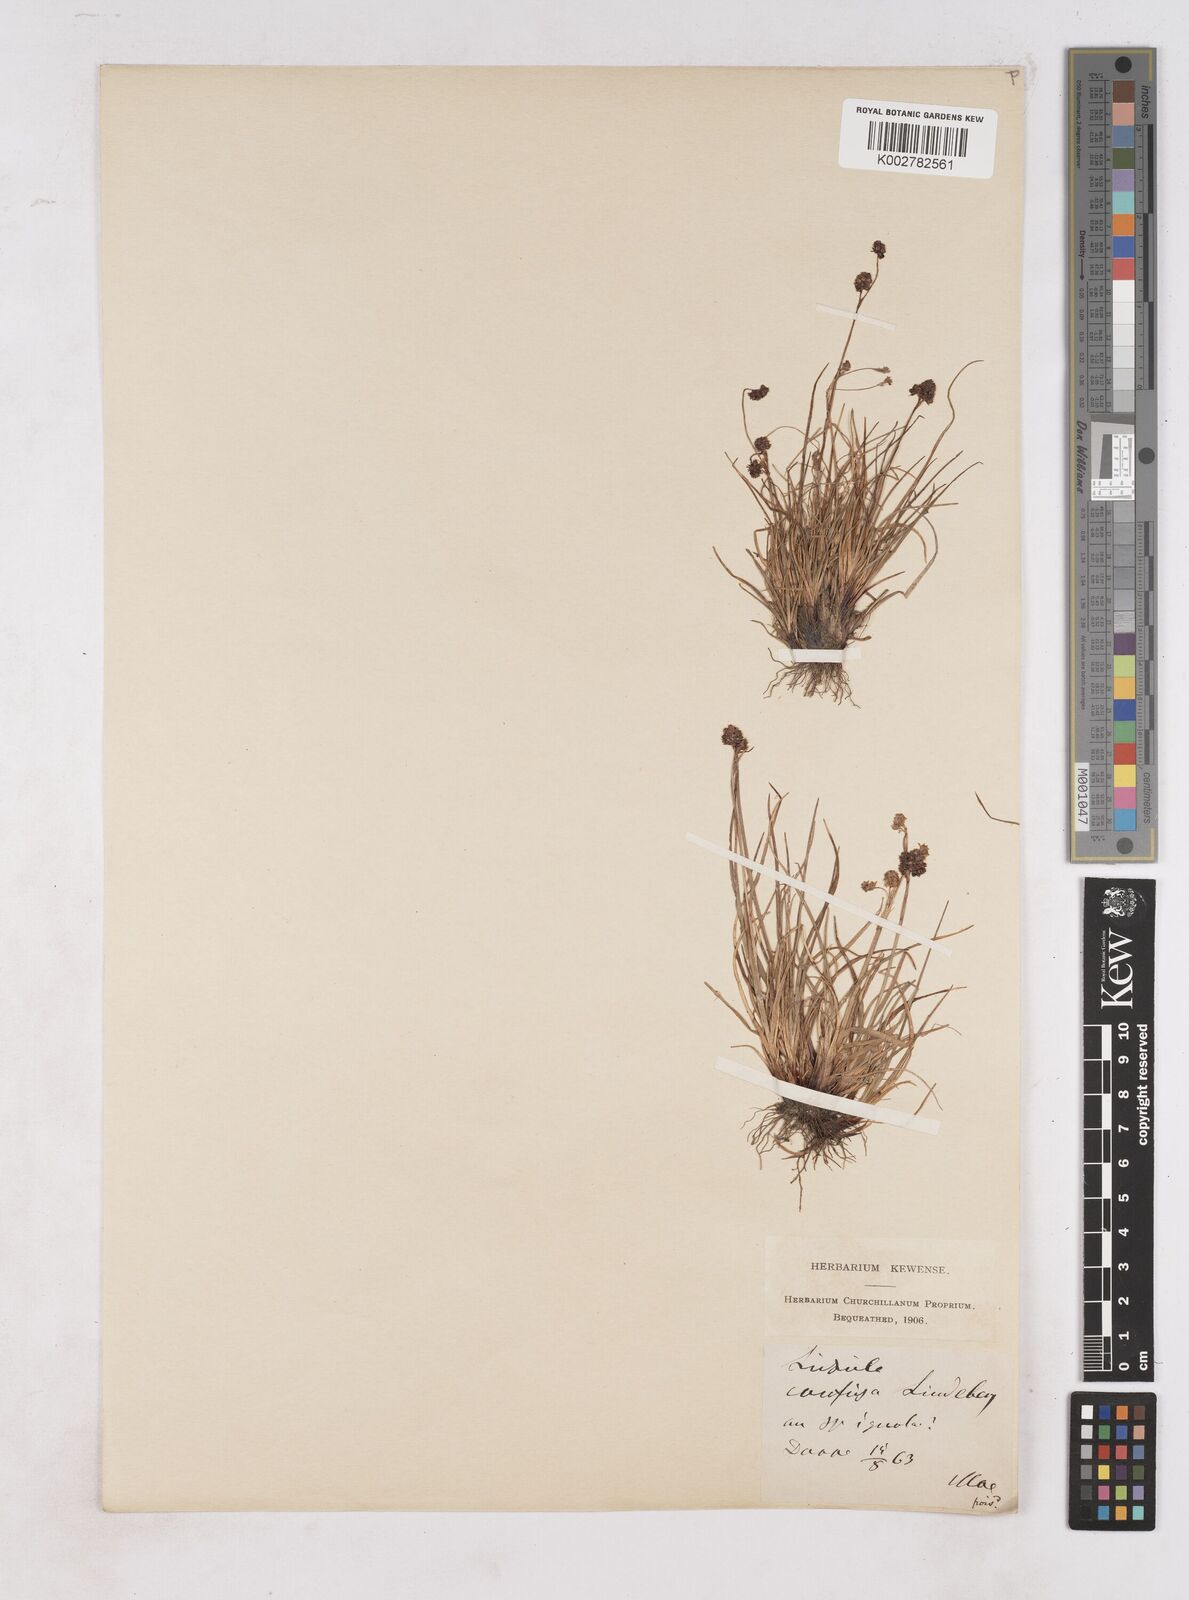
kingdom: Plantae
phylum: Tracheophyta
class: Liliopsida
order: Poales
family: Juncaceae
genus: Luzula
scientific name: Luzula confusa
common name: Northern wood rush
